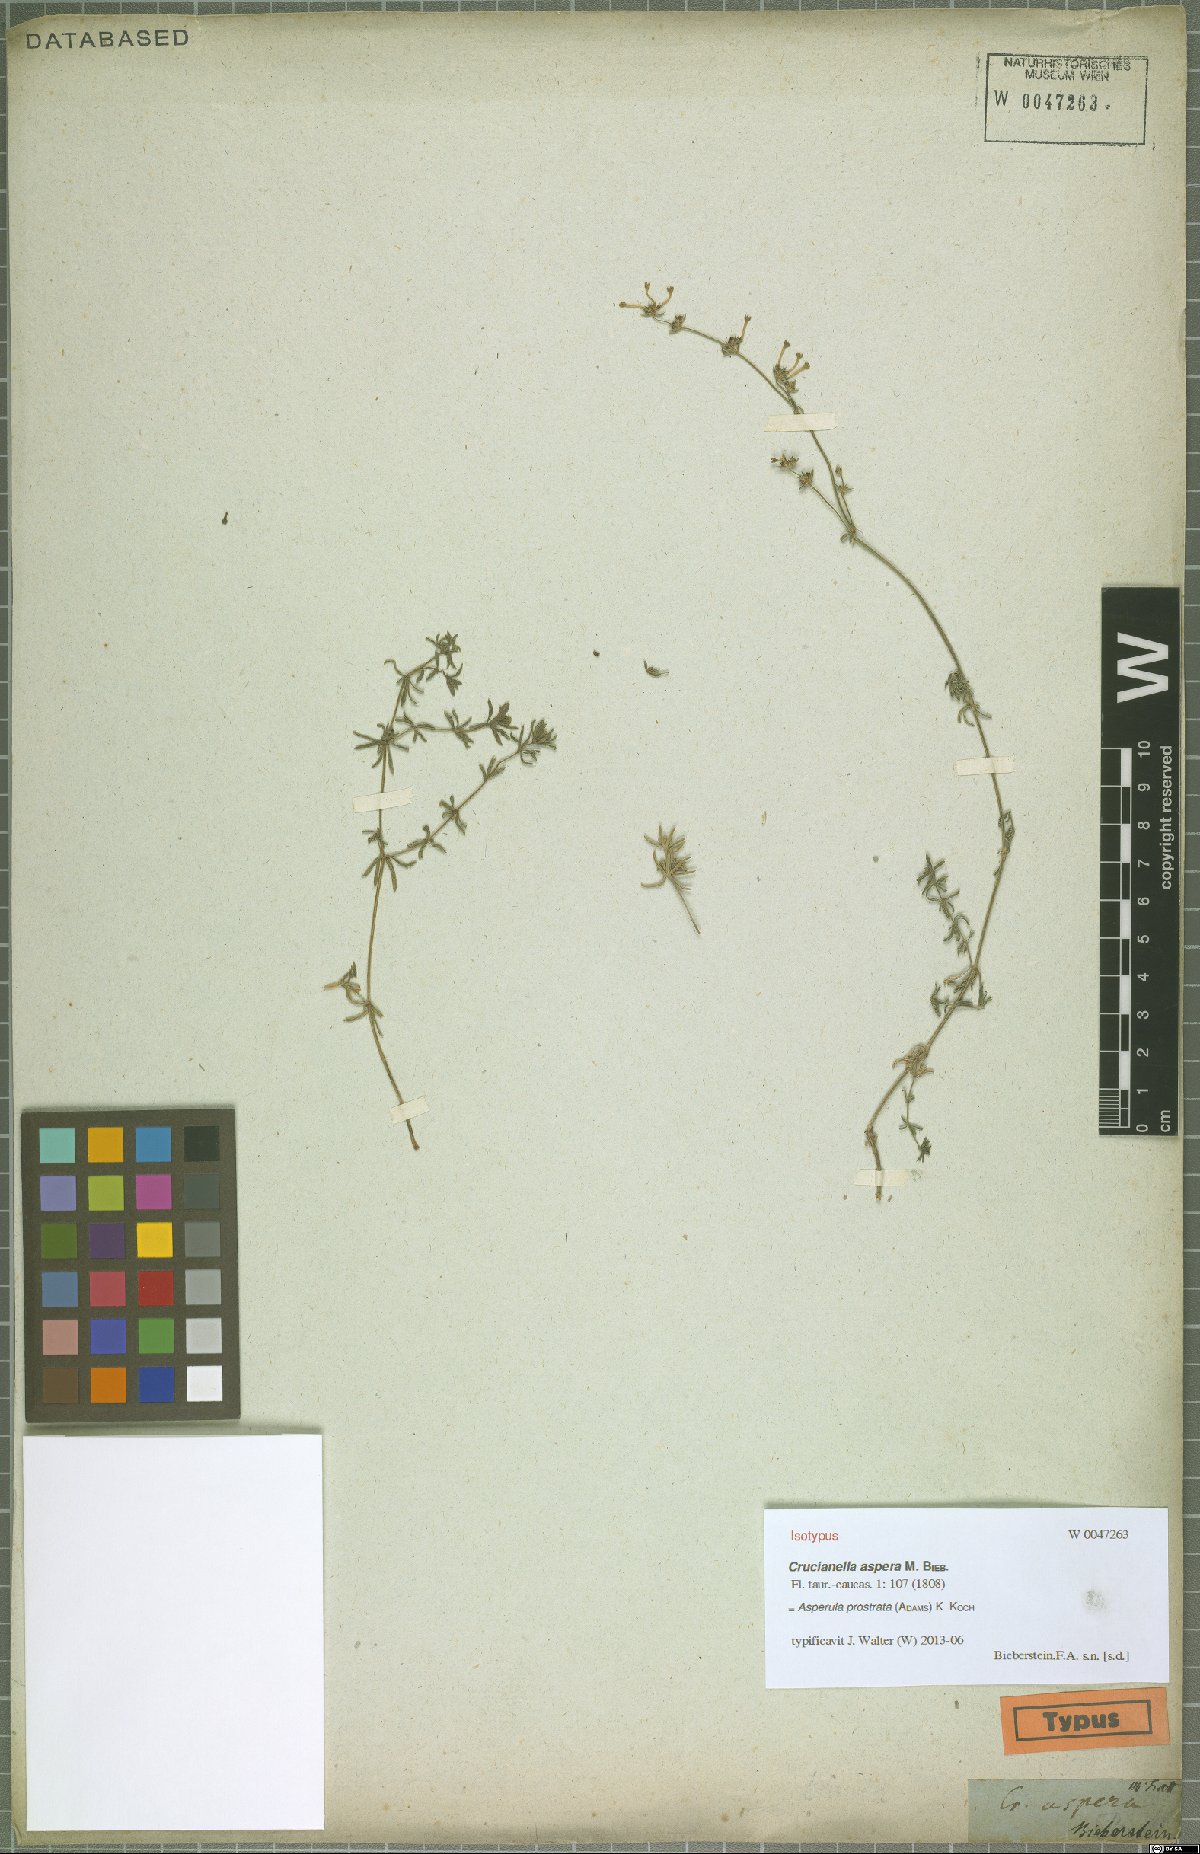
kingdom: Plantae
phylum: Tracheophyta
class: Magnoliopsida
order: Gentianales
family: Rubiaceae
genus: Asperula
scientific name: Asperula prostrata
